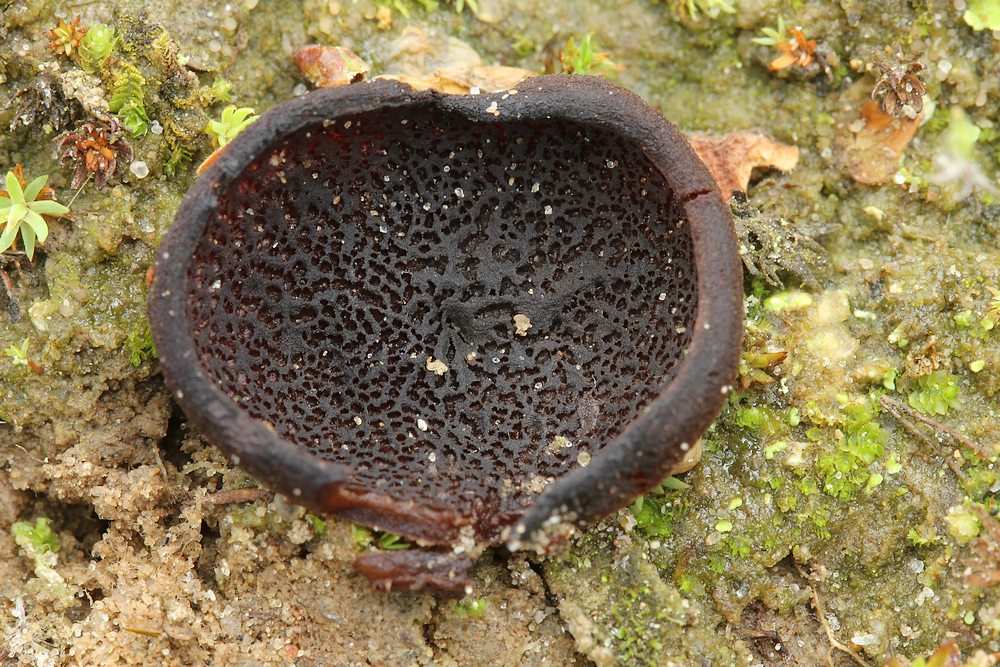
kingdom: Fungi
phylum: Ascomycota
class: Pezizomycetes
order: Pezizales
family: Pezizaceae
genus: Legaliana
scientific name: Legaliana badia
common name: leverbrun bægersvamp
